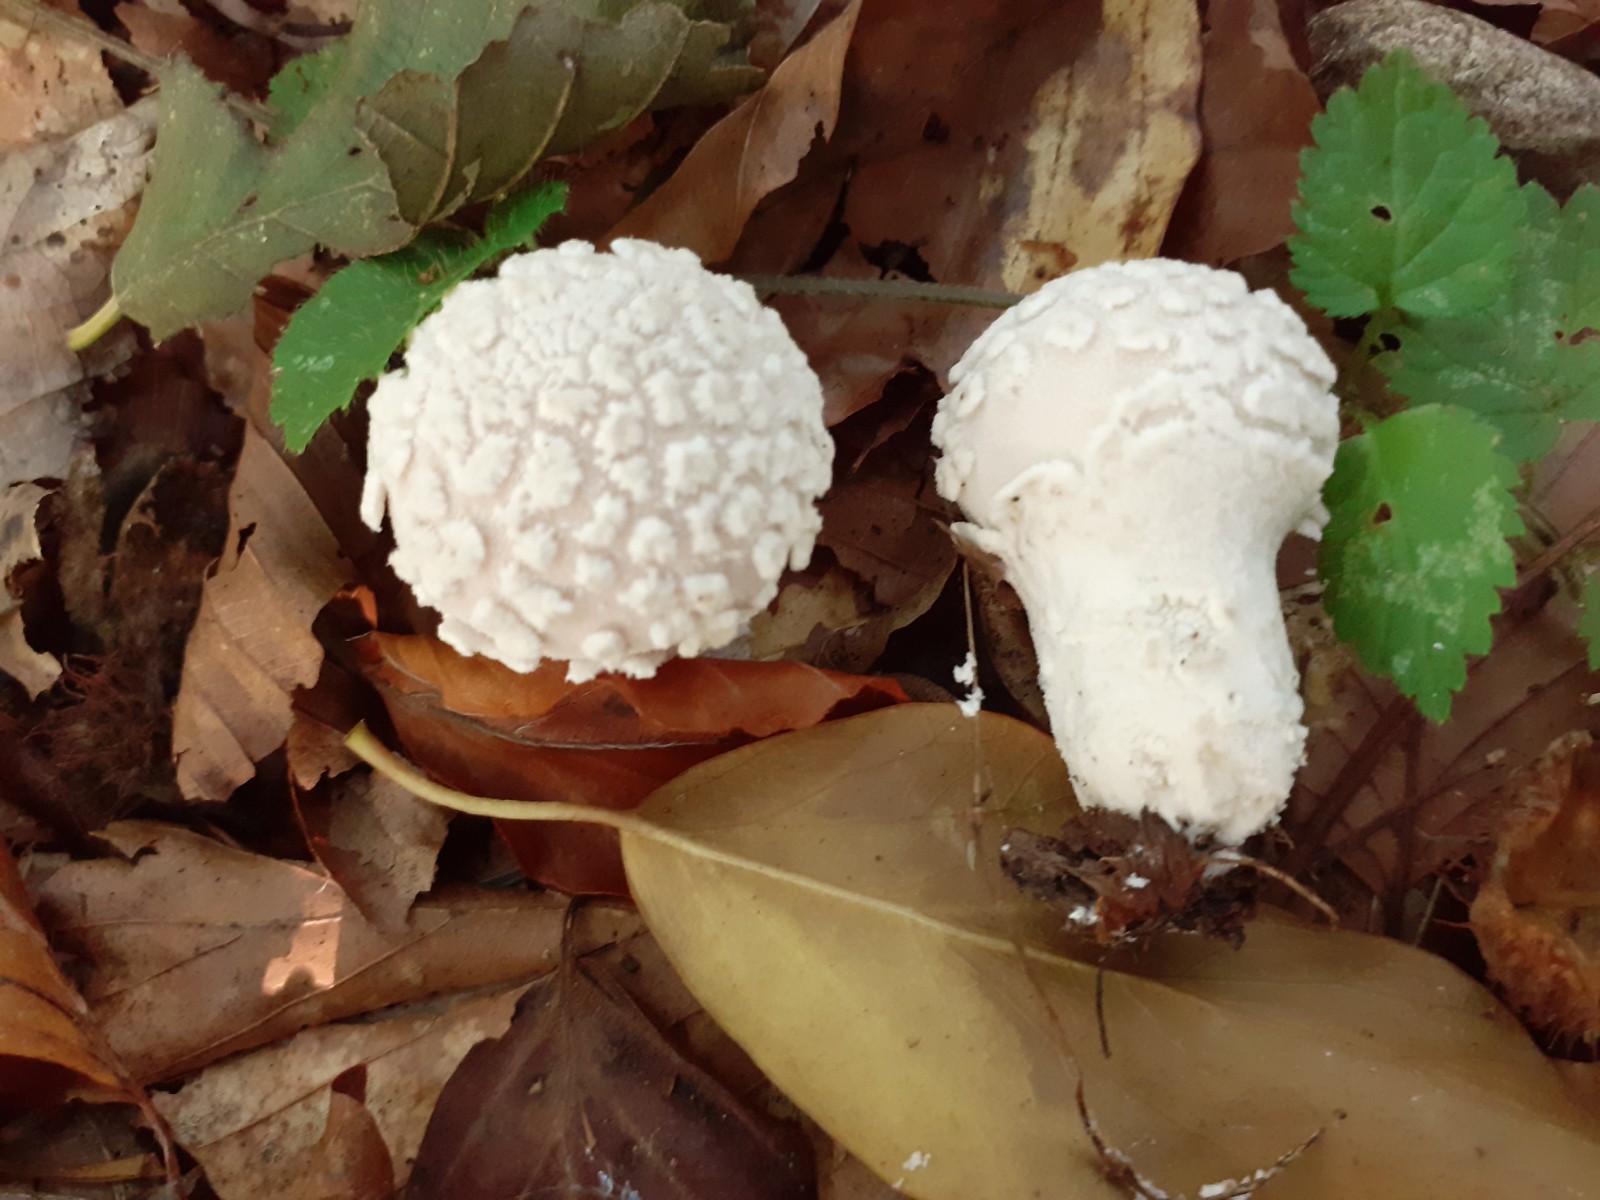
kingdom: Fungi
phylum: Basidiomycota
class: Agaricomycetes
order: Agaricales
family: Lycoperdaceae
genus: Lycoperdon
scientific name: Lycoperdon mammiforme
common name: rosa støvbold
